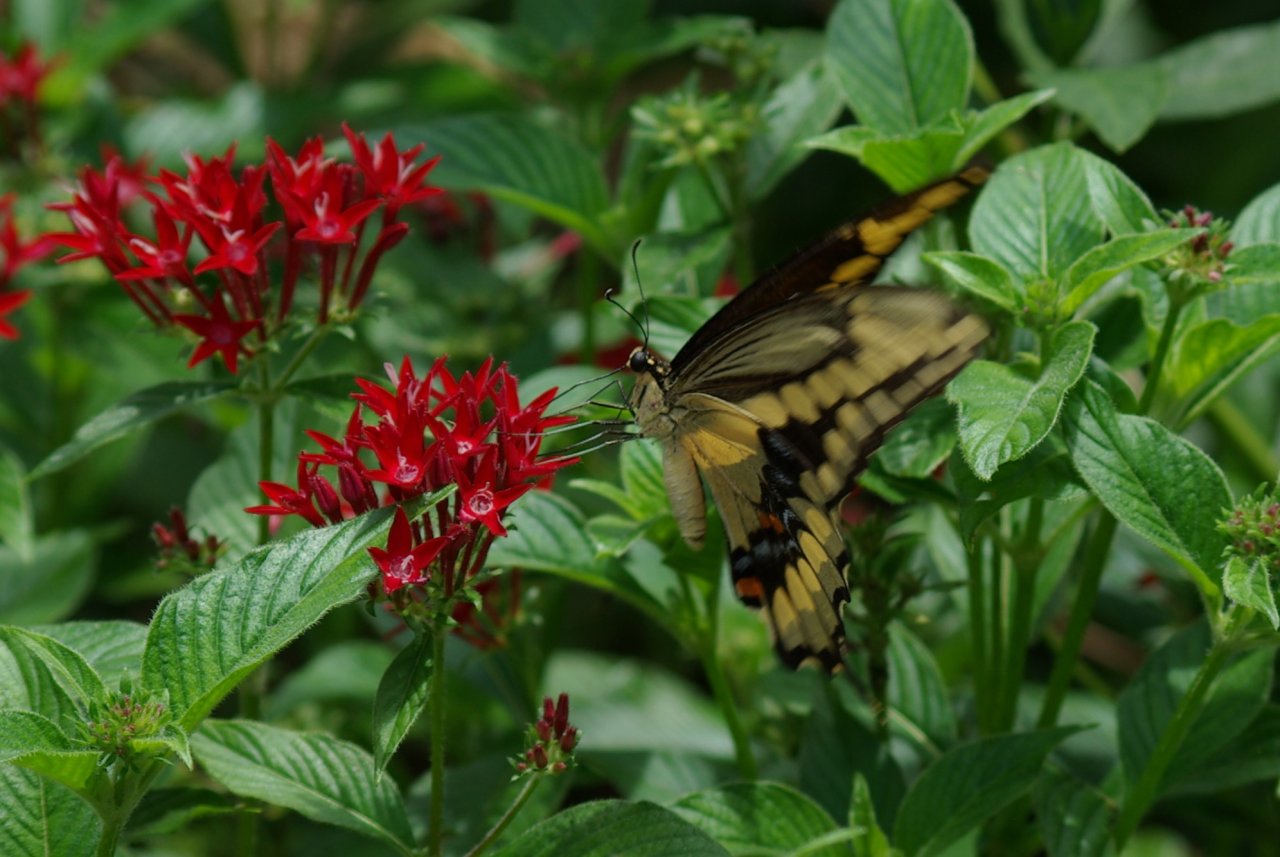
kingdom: Animalia
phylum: Arthropoda
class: Insecta
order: Lepidoptera
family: Papilionidae
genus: Papilio
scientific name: Papilio cresphontes
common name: Eastern Giant Swallowtail
